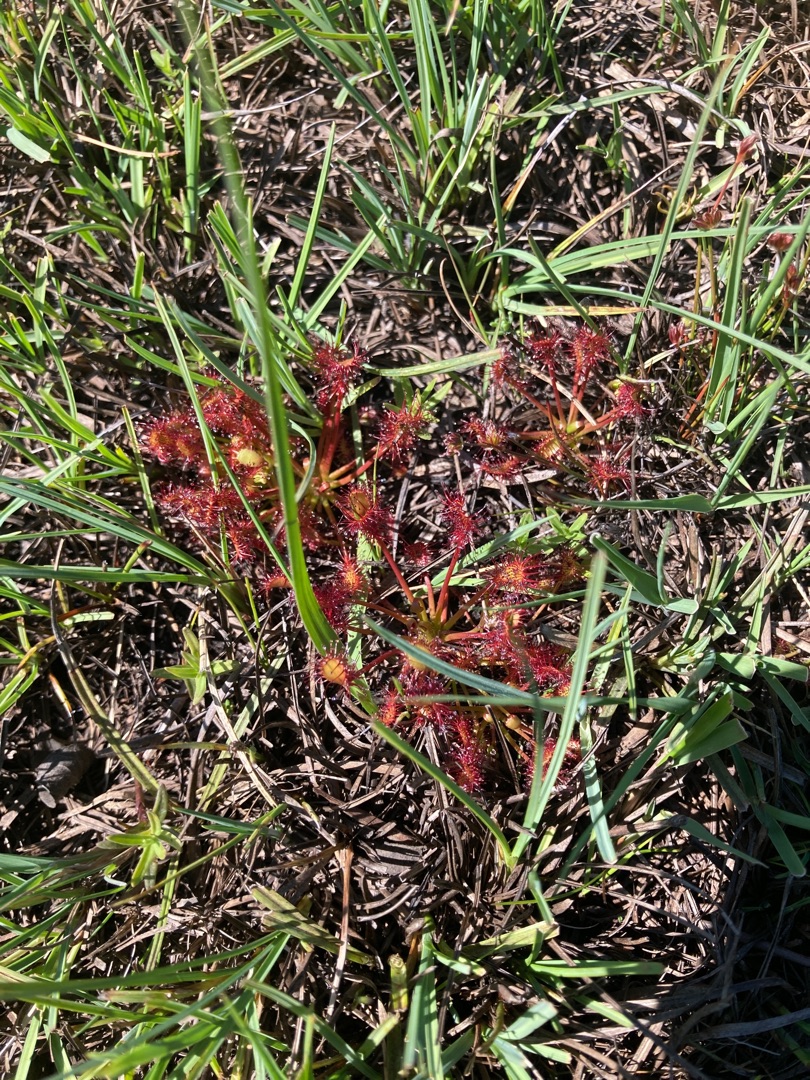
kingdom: Plantae
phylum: Tracheophyta
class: Magnoliopsida
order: Caryophyllales
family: Droseraceae
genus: Drosera
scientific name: Drosera intermedia
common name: Liden soldug
